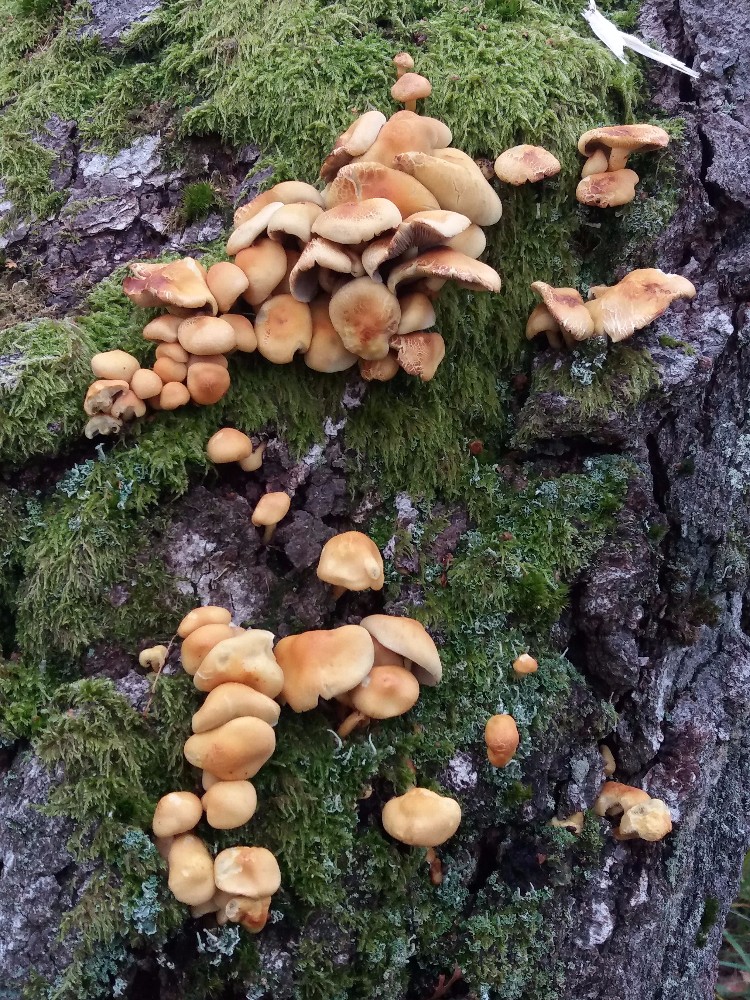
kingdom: Fungi
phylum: Basidiomycota
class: Agaricomycetes
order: Agaricales
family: Strophariaceae
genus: Hypholoma
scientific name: Hypholoma
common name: svovlhat
